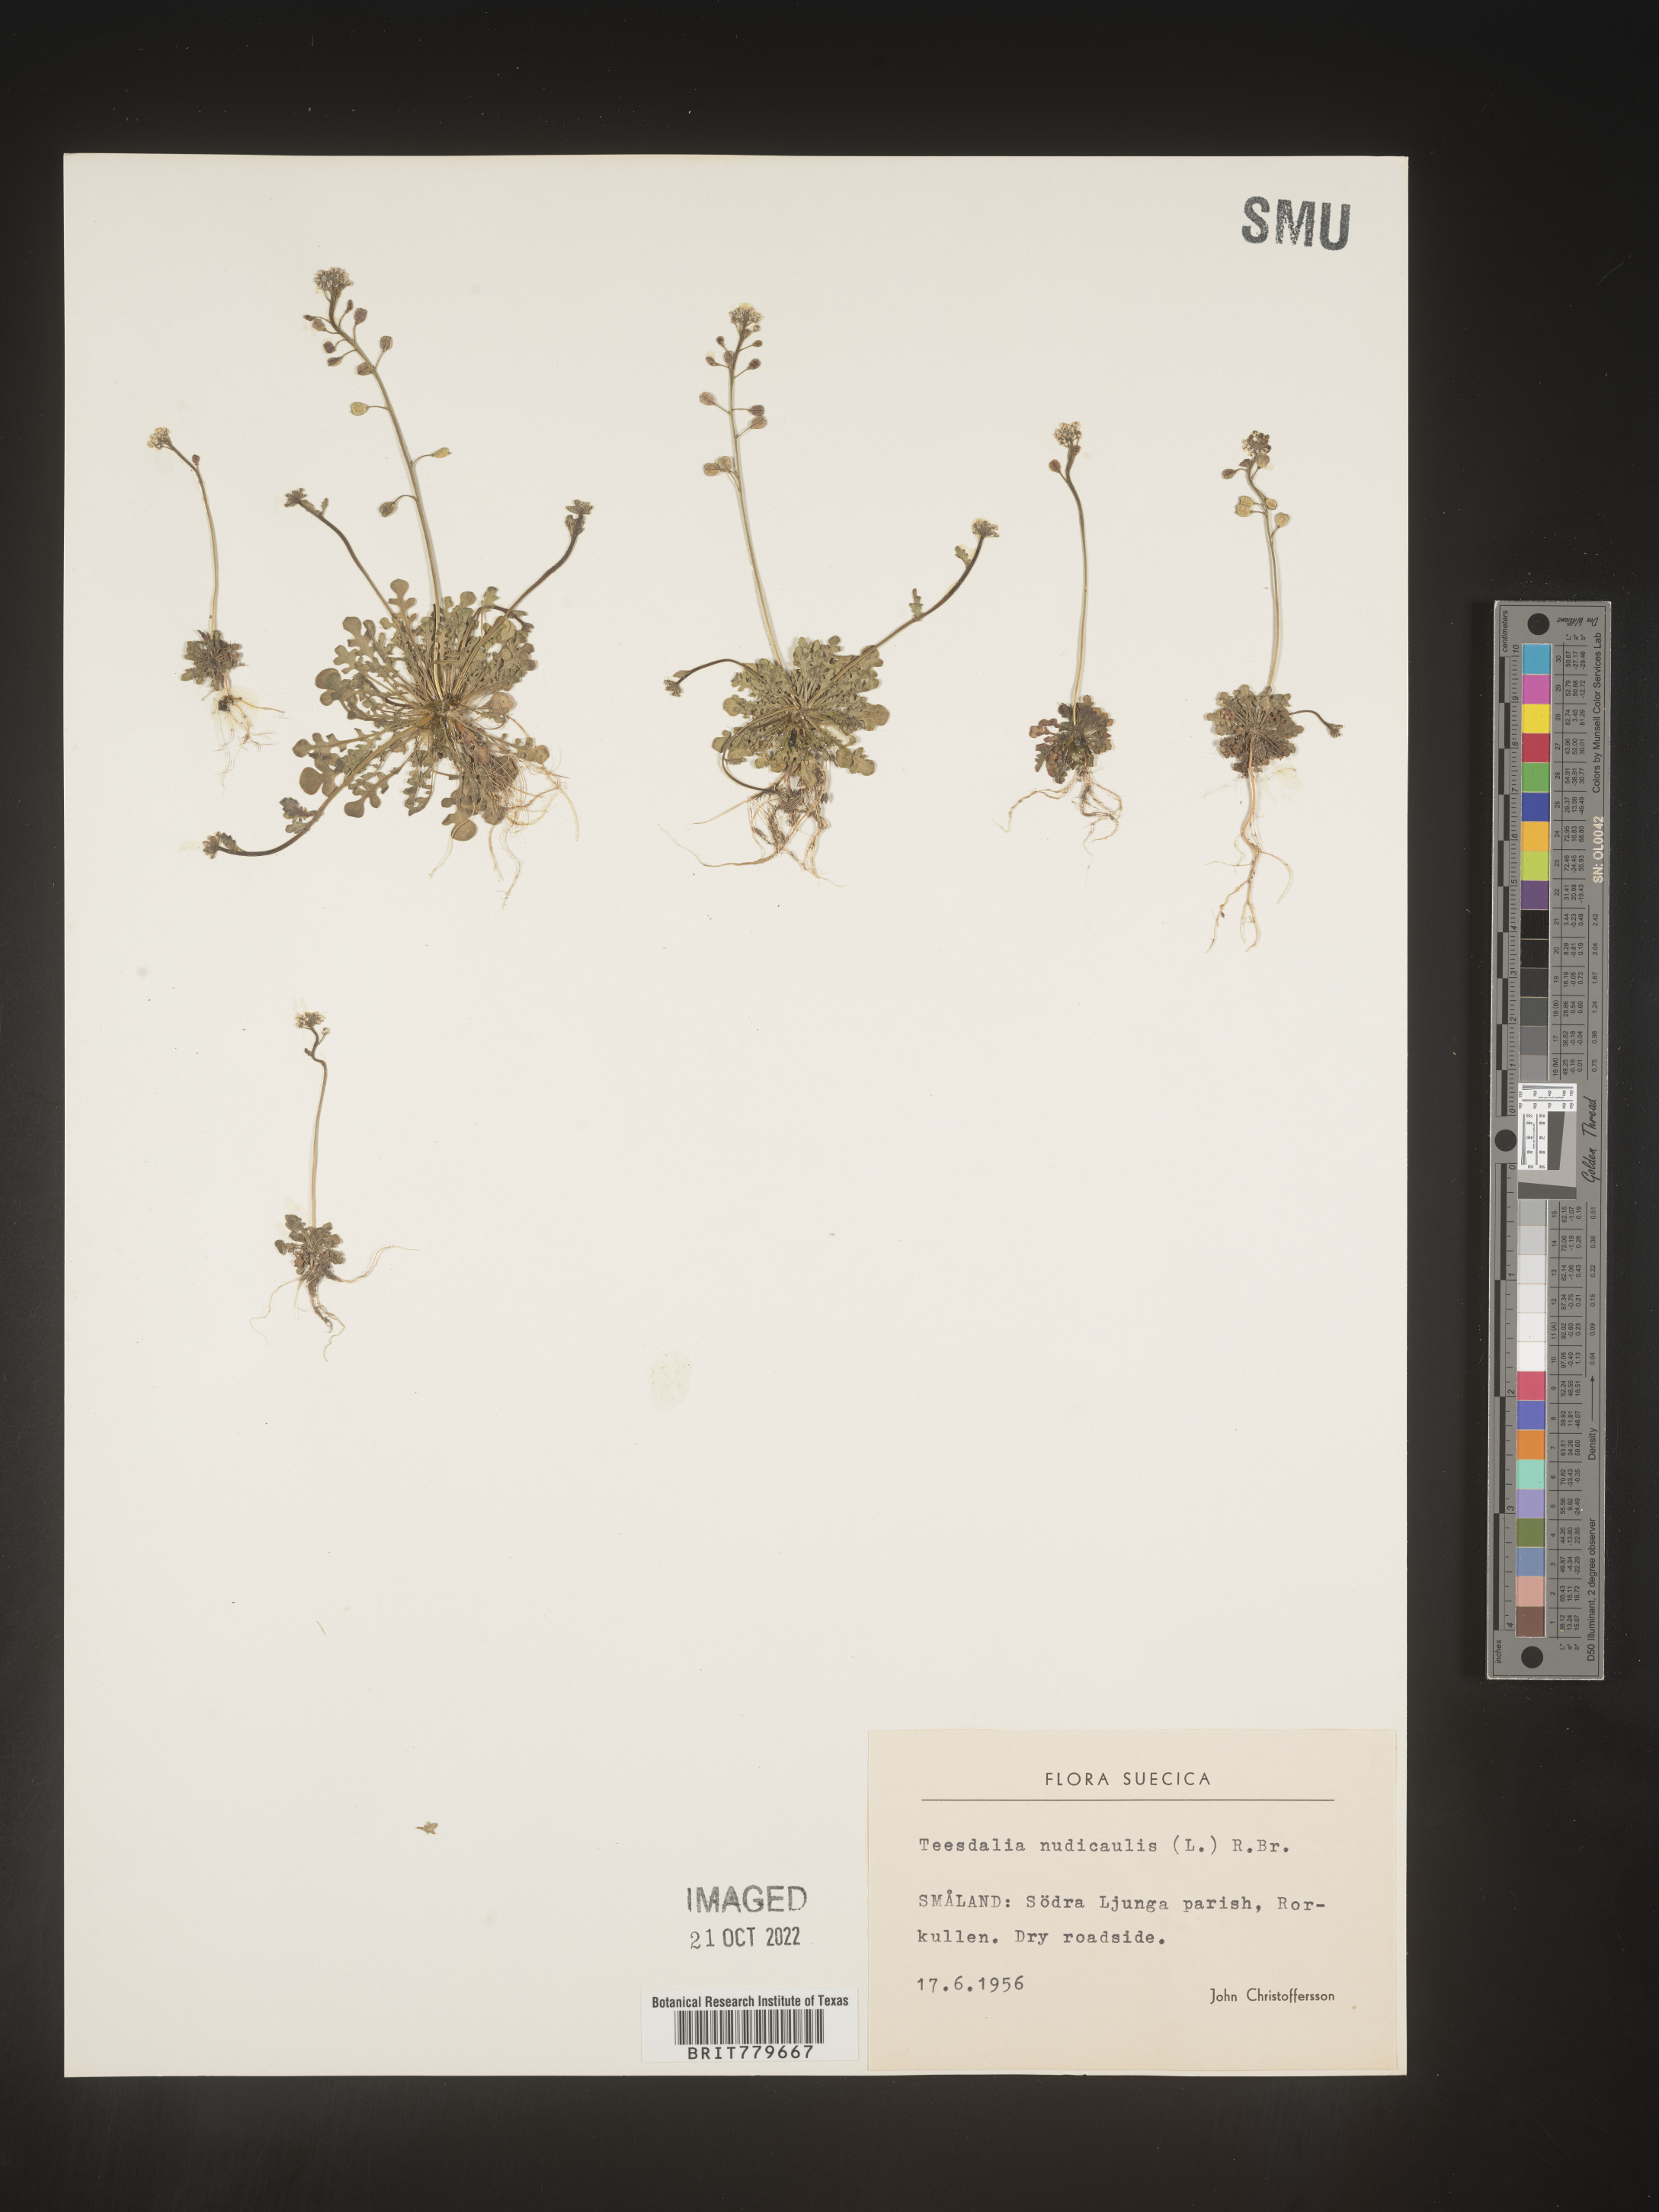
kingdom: Plantae
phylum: Tracheophyta
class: Magnoliopsida
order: Brassicales
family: Brassicaceae
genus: Teesdalia
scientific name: Teesdalia
